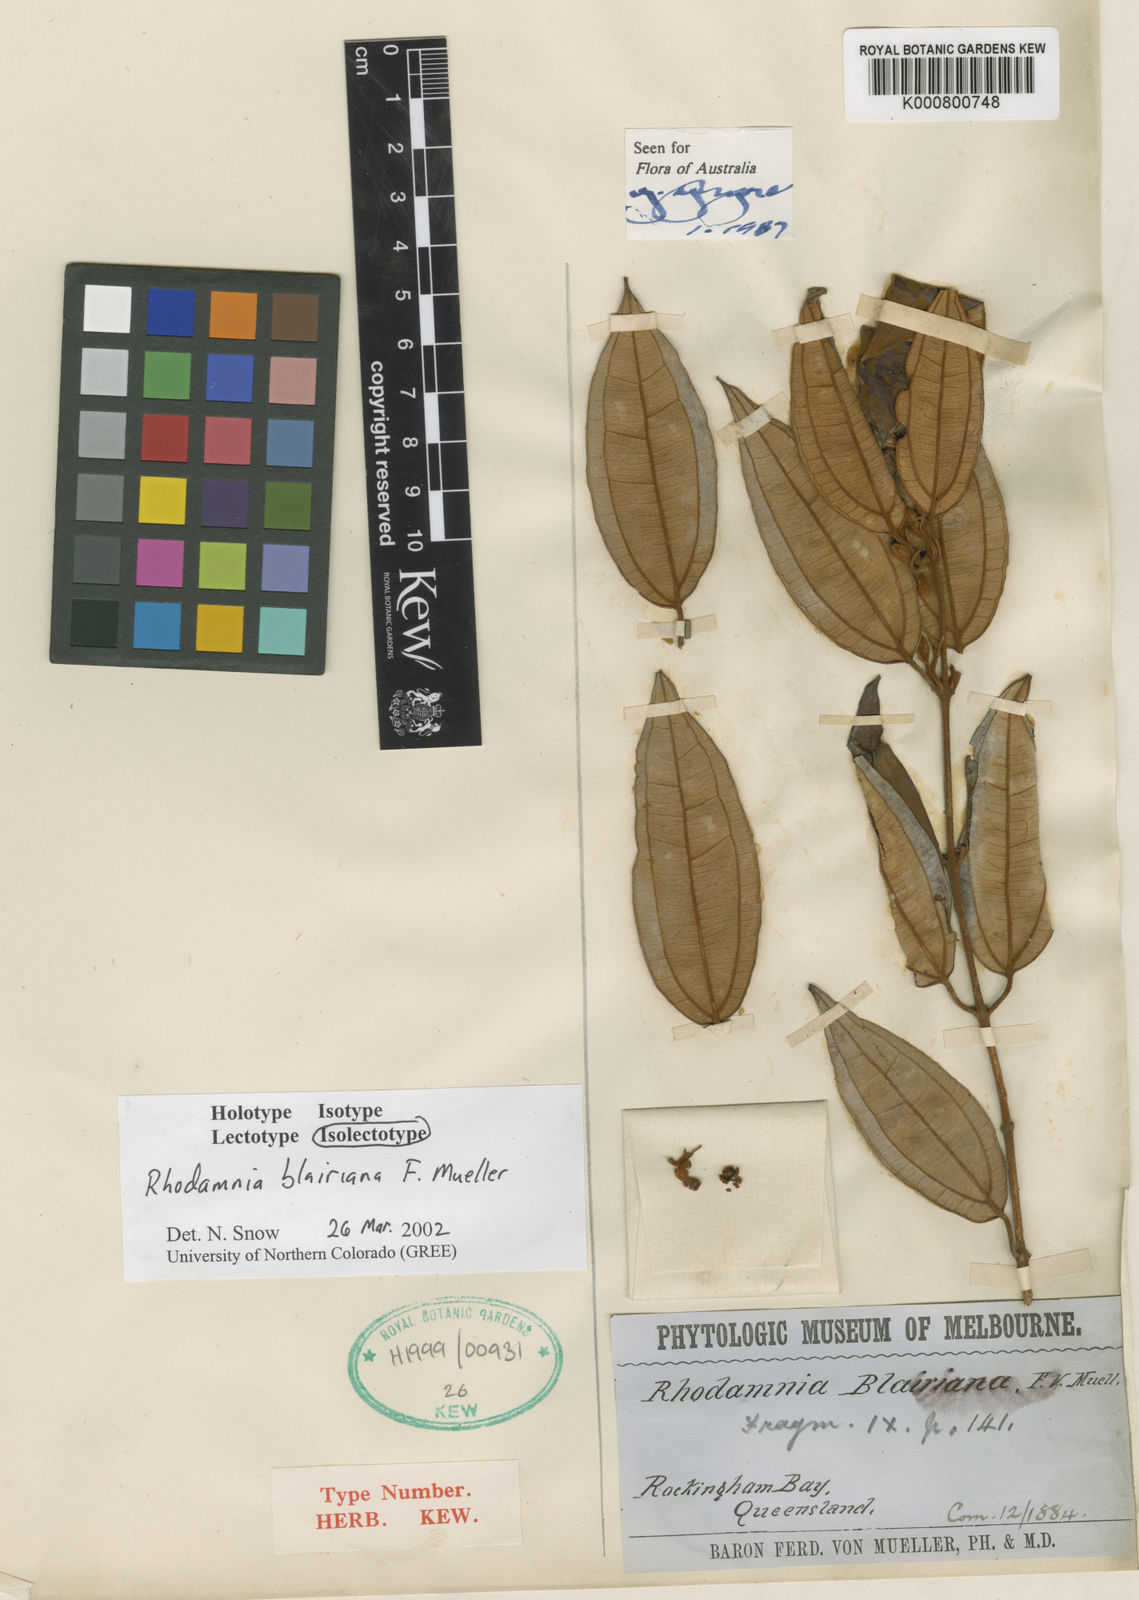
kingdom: Plantae
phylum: Tracheophyta
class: Magnoliopsida
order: Myrtales
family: Myrtaceae
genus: Rhodamnia
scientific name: Rhodamnia blairiana
